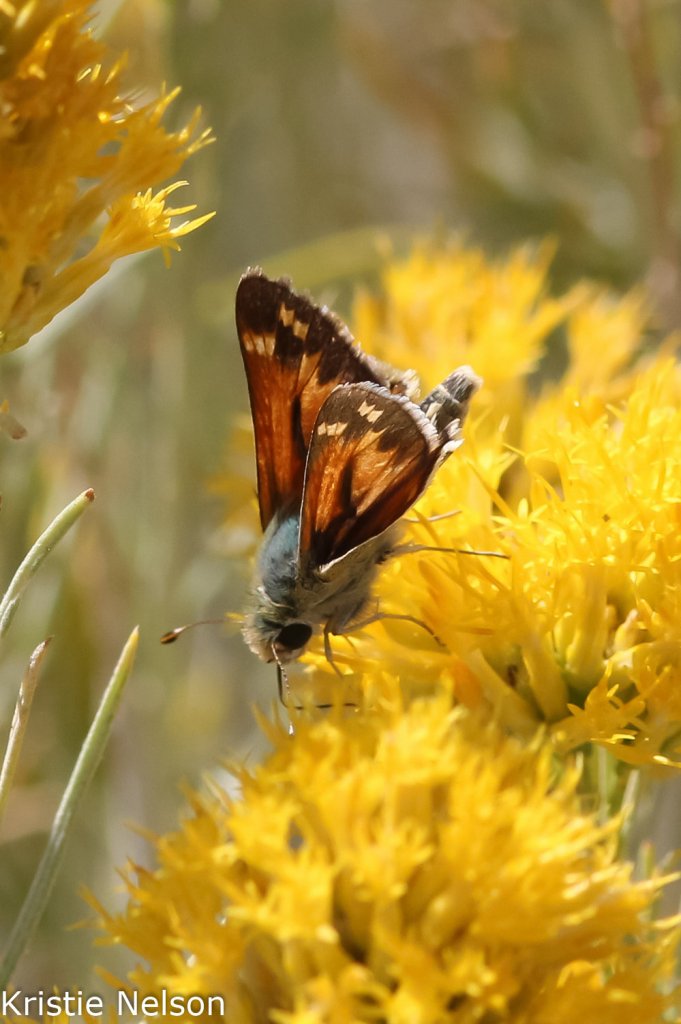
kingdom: Animalia
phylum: Arthropoda
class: Insecta
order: Lepidoptera
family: Hesperiidae
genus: Hesperia
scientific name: Hesperia juba
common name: Juba Skipper
